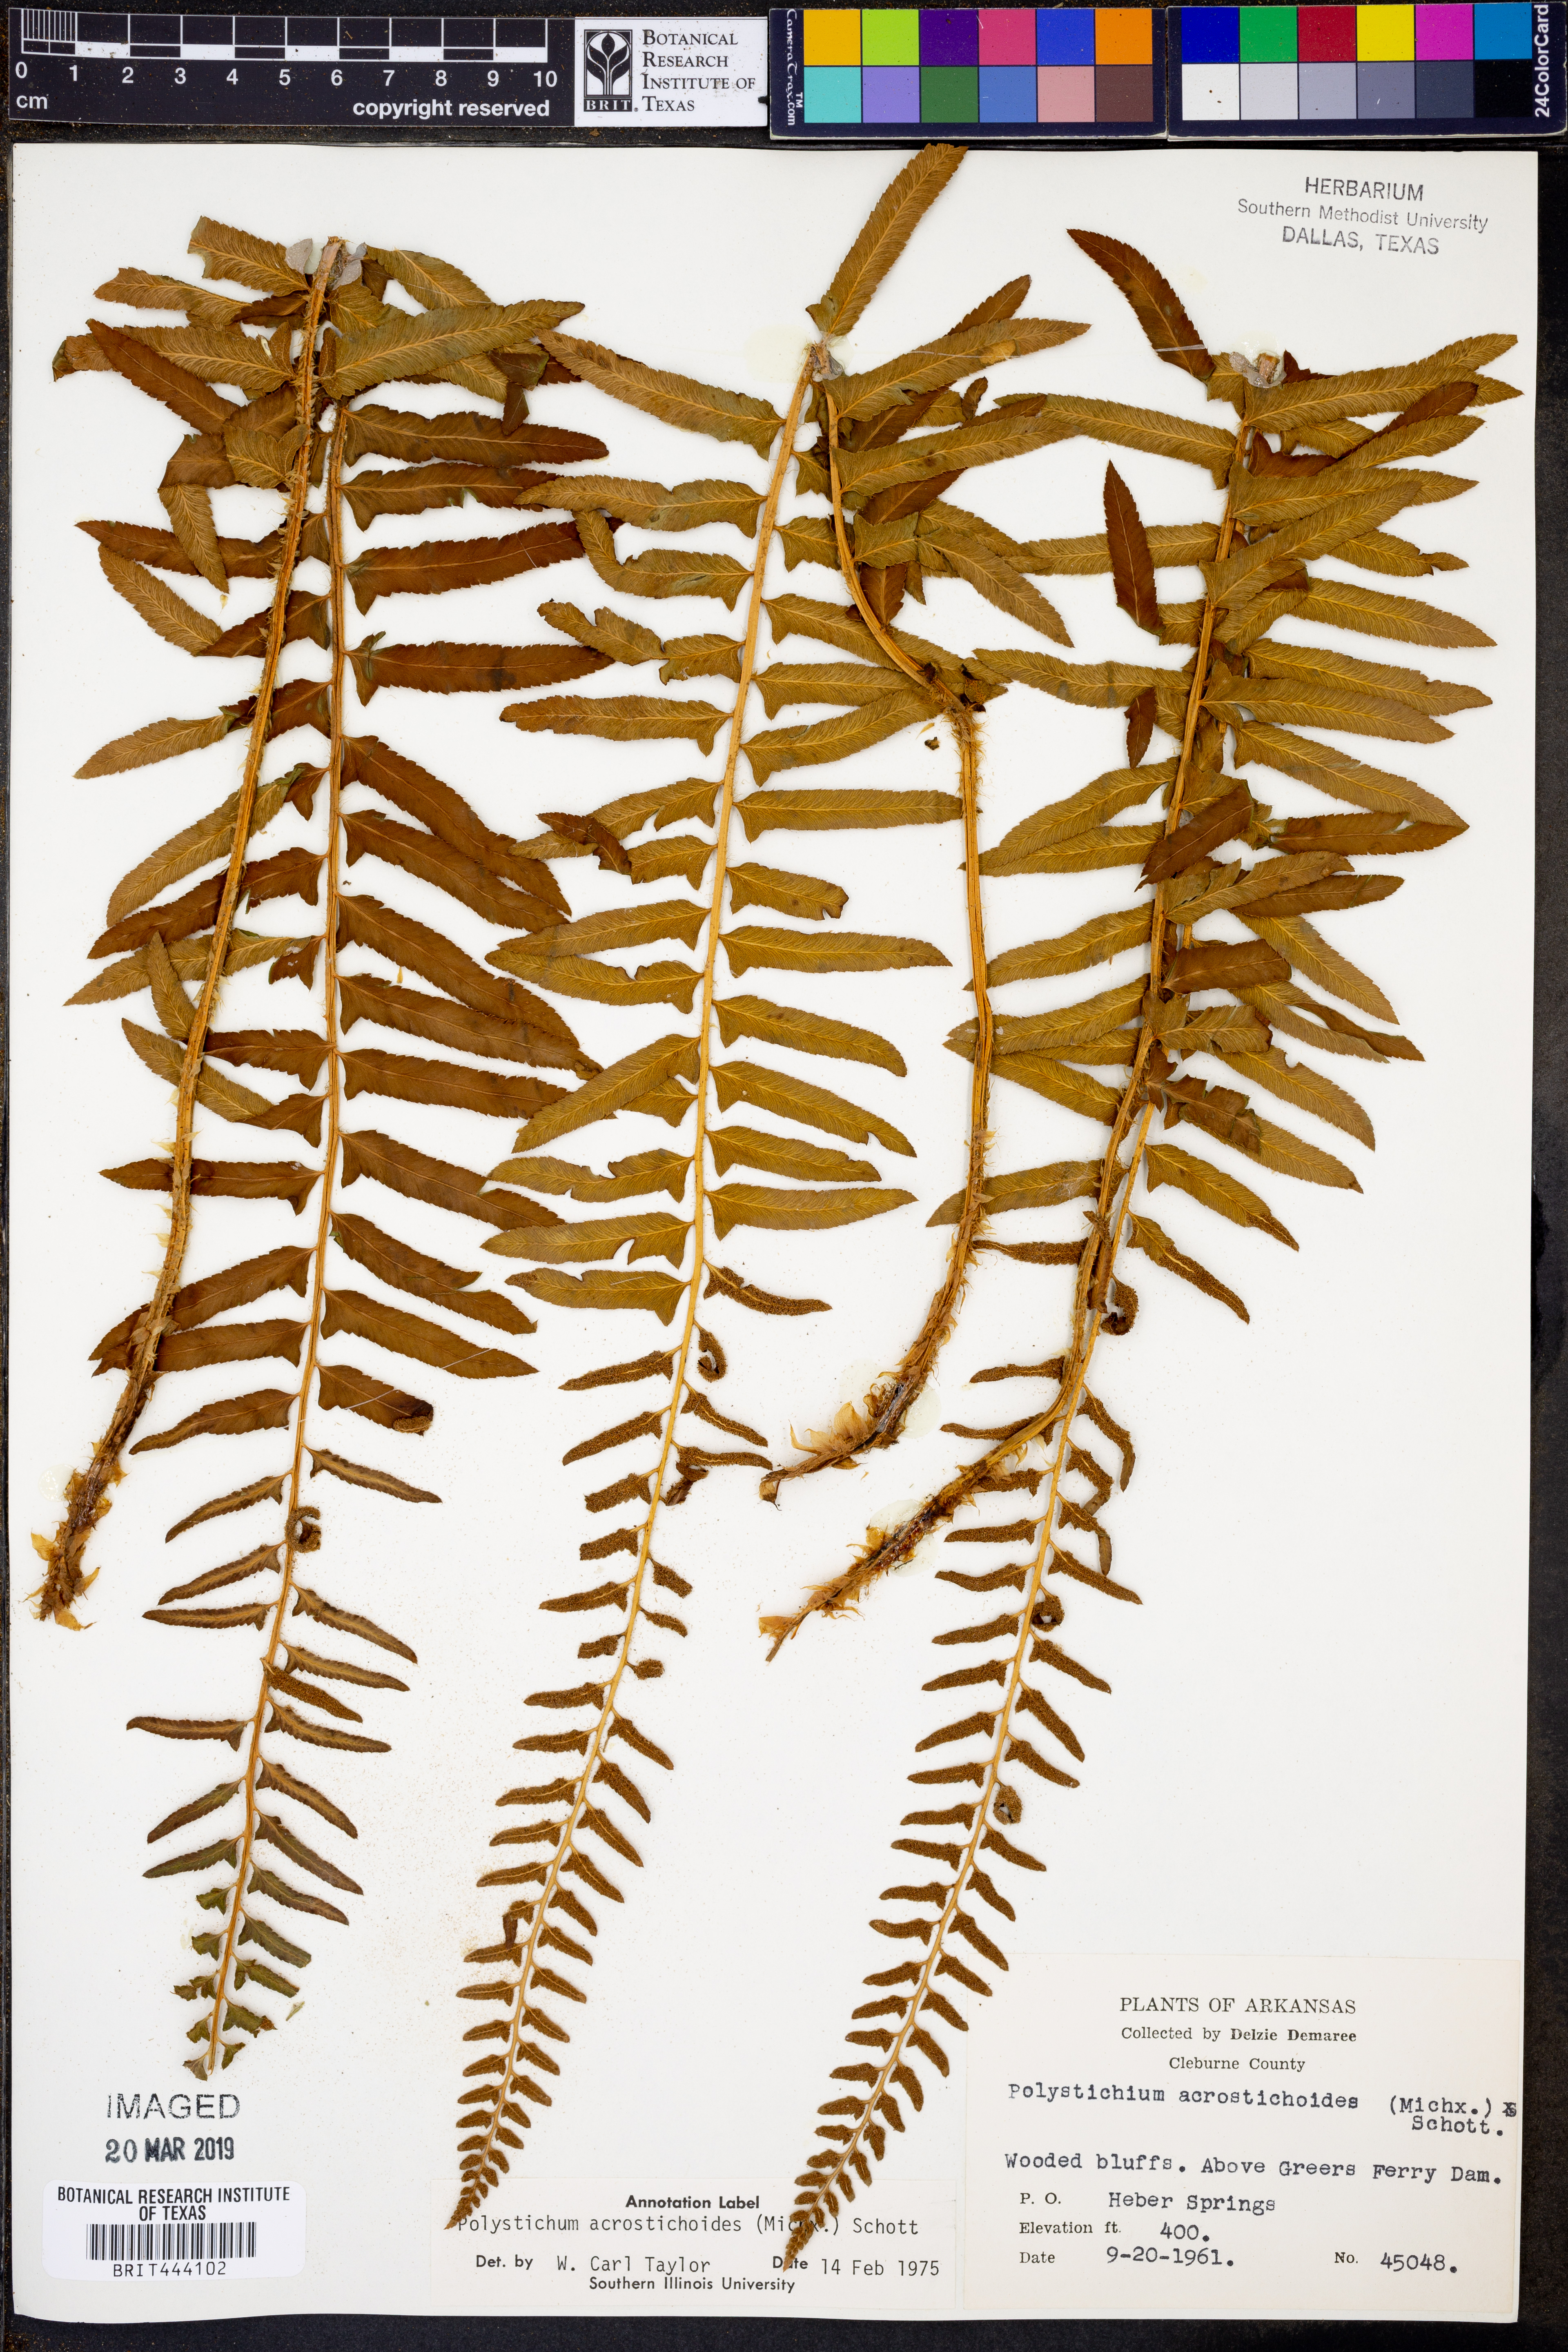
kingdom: Plantae
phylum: Tracheophyta
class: Polypodiopsida
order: Polypodiales
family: Dryopteridaceae
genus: Polystichum
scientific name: Polystichum acrostichoides
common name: Christmas fern
